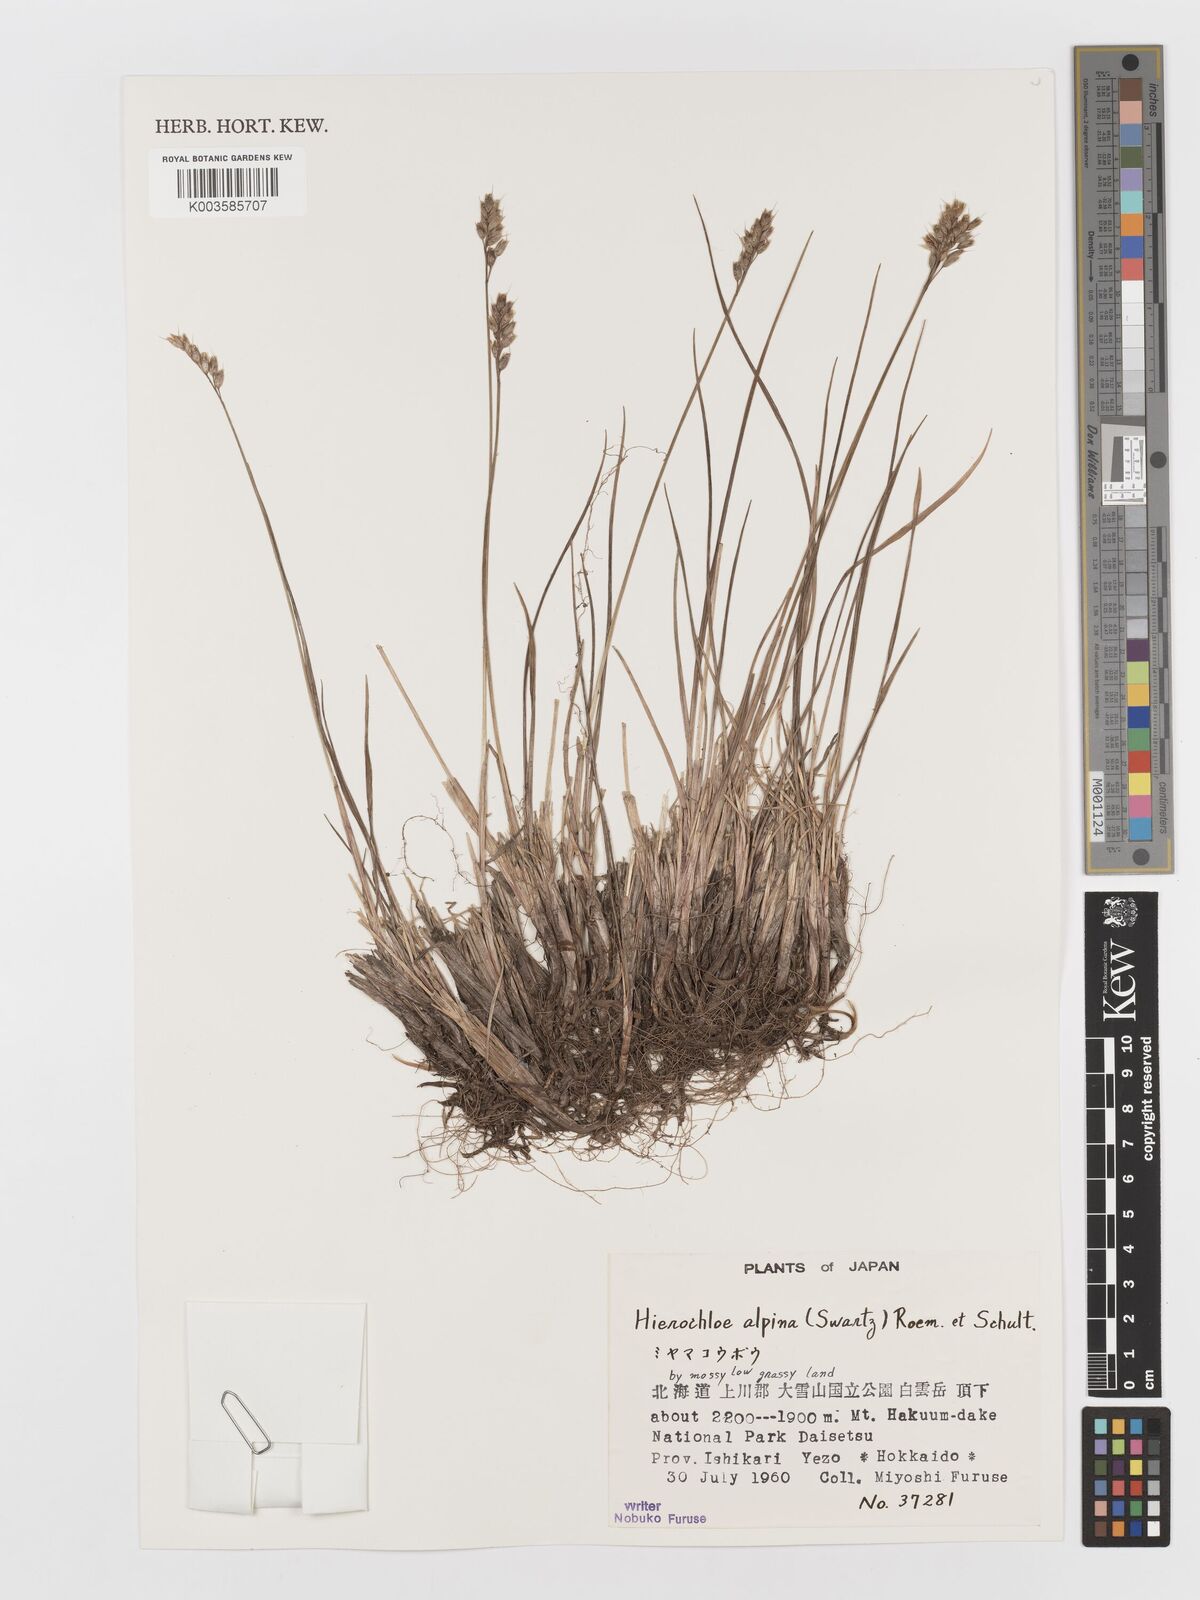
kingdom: Plantae
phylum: Tracheophyta
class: Liliopsida
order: Poales
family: Poaceae
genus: Anthoxanthum
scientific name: Anthoxanthum monticola
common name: Alpine sweetgrass
